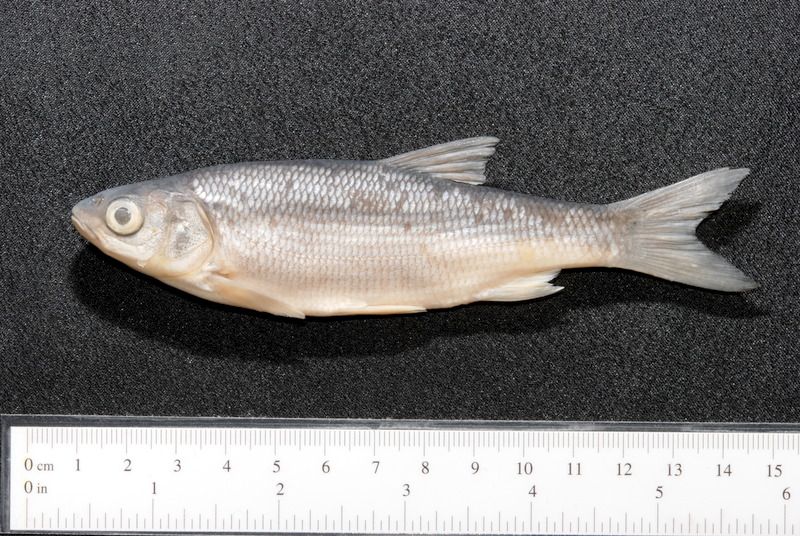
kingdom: Animalia
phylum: Chordata
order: Cypriniformes
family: Cyprinidae
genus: Leuciscus
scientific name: Leuciscus idus
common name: Ide
